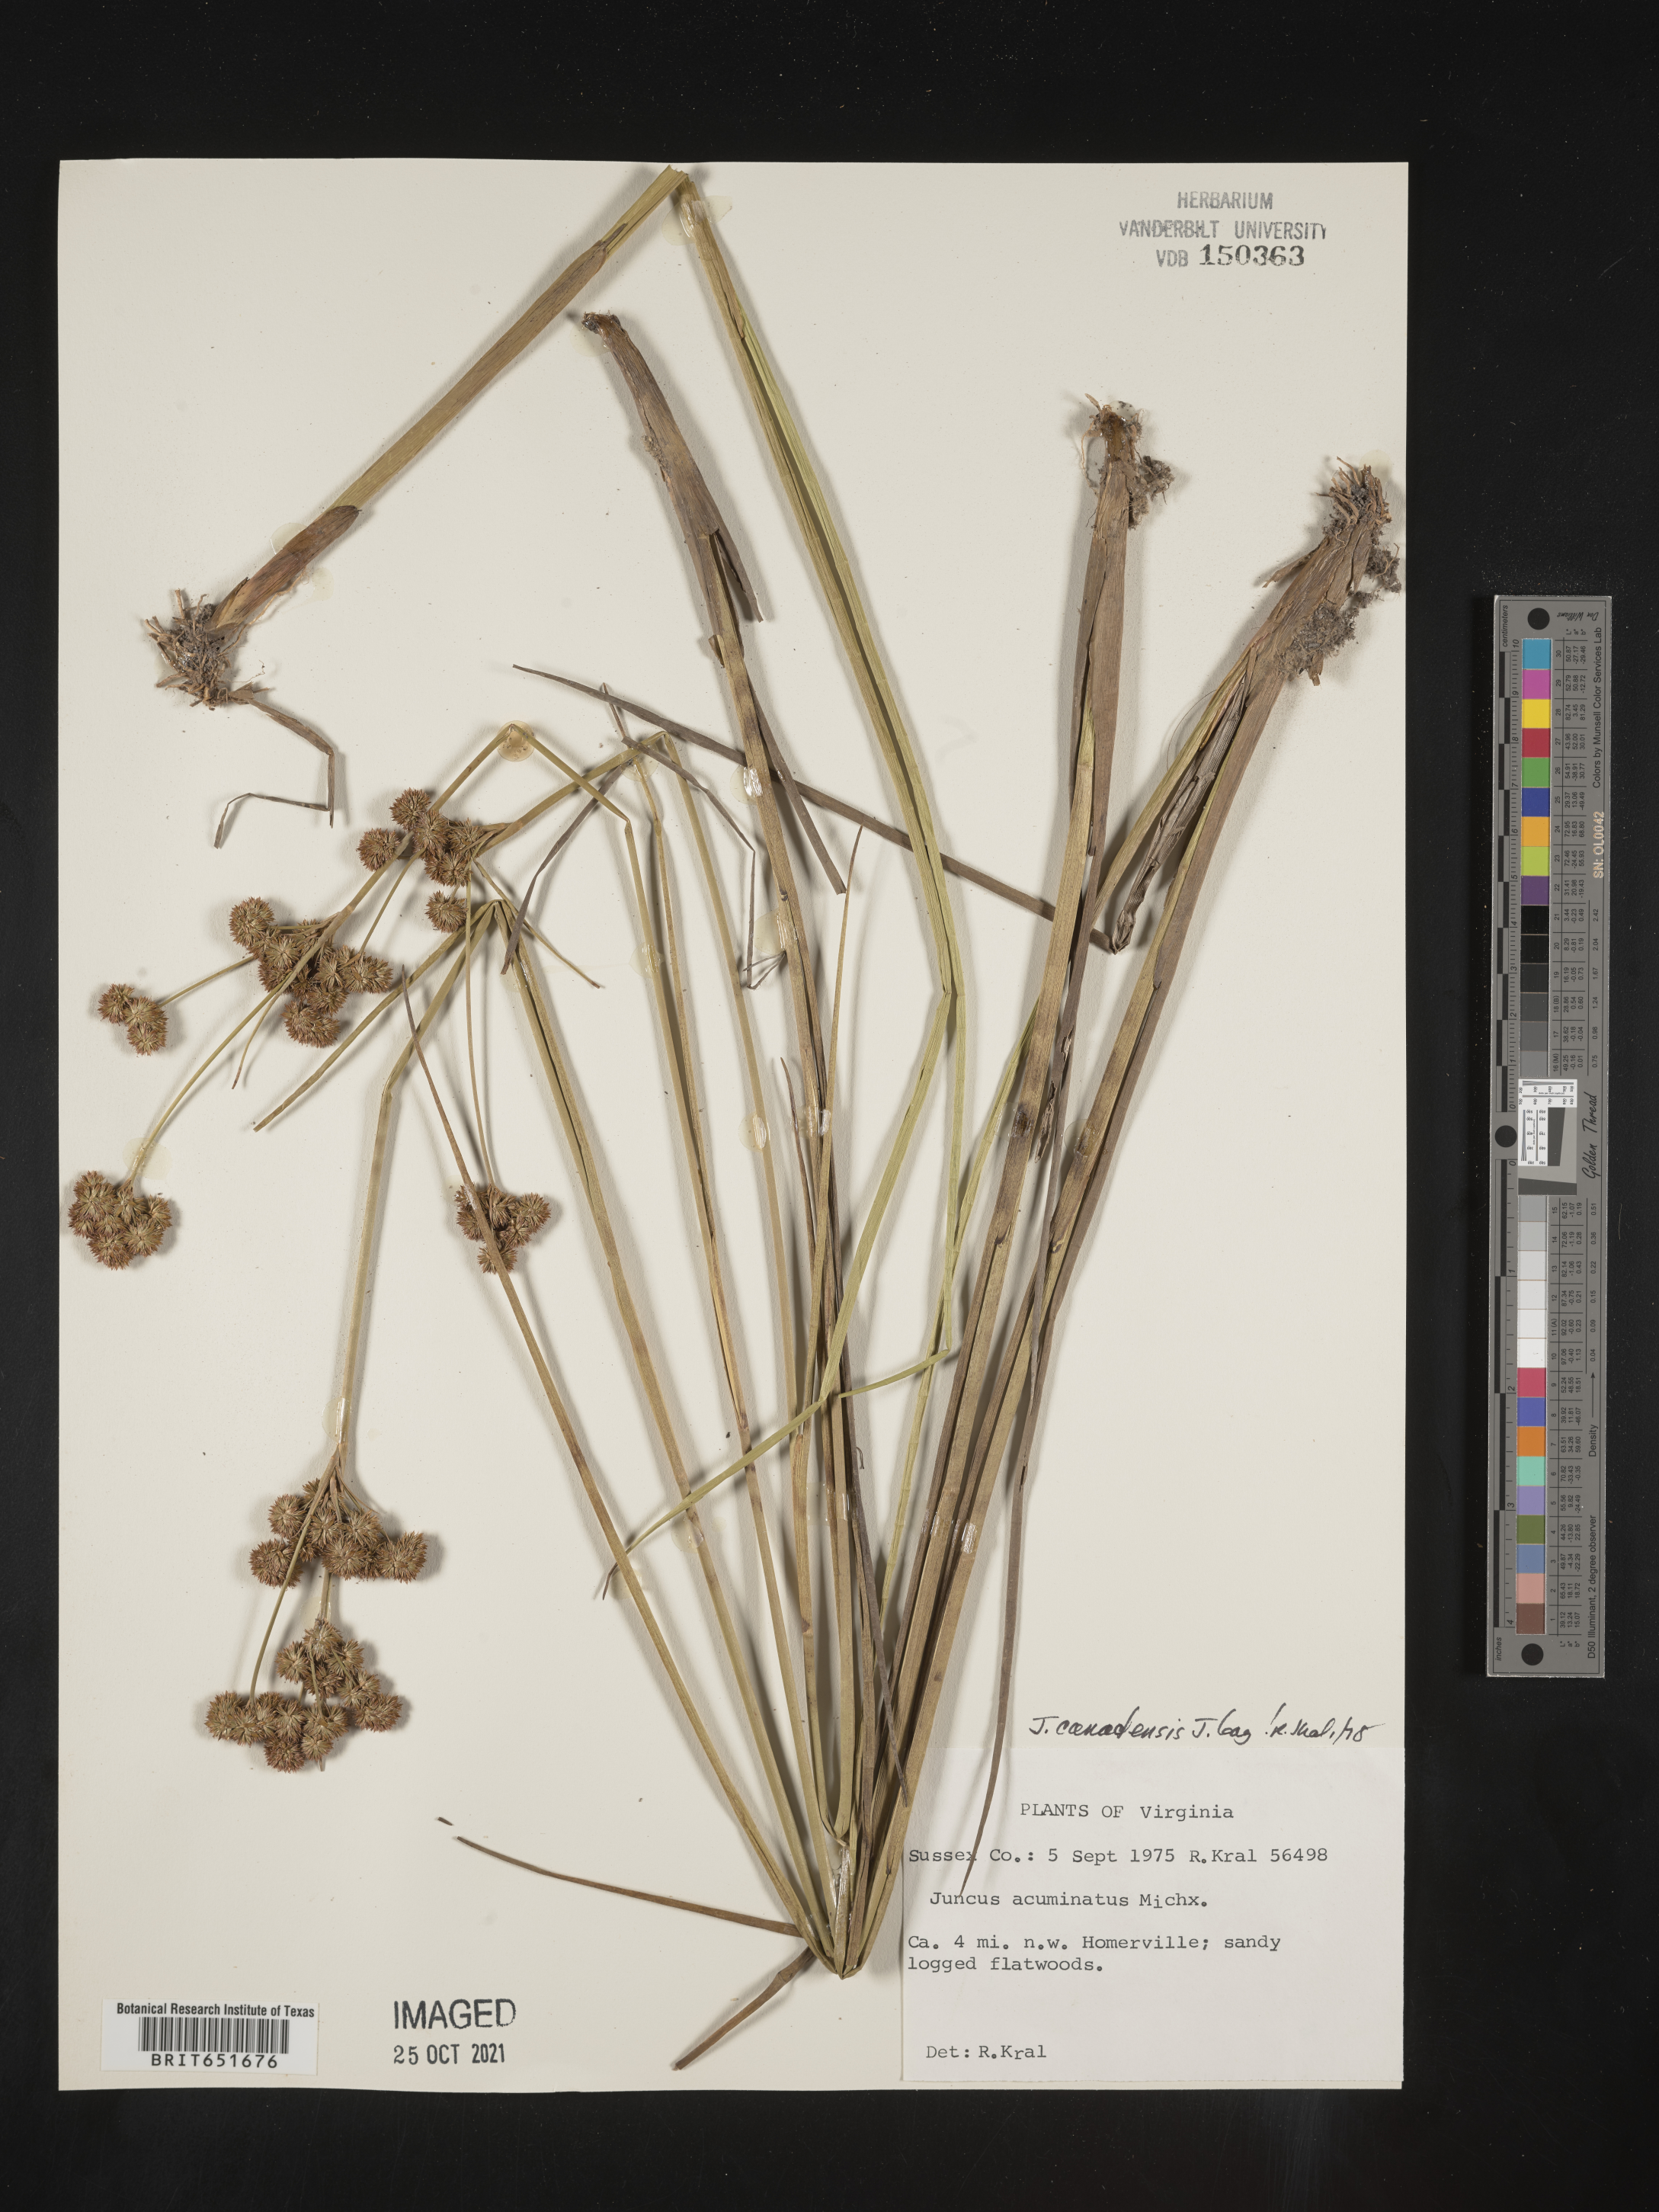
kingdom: Plantae
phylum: Tracheophyta
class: Liliopsida
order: Poales
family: Juncaceae
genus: Juncus
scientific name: Juncus canadensis
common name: Canada rush
